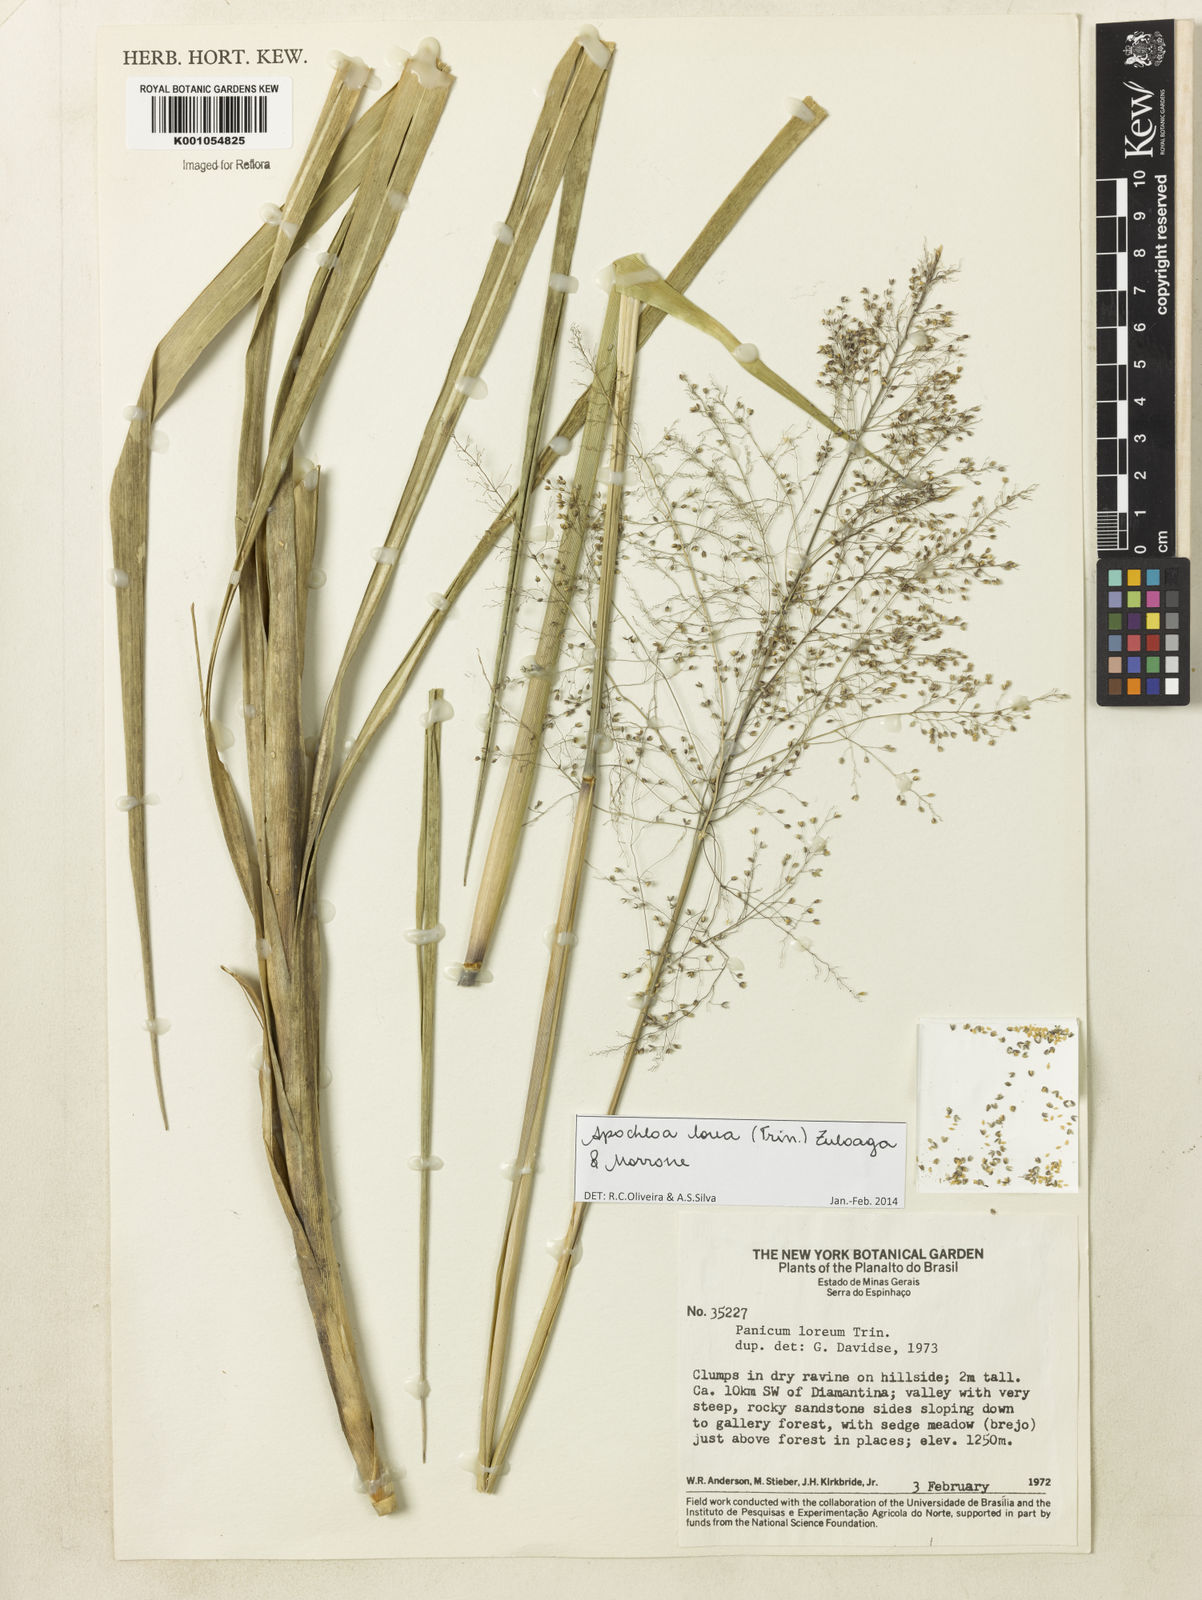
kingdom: Plantae
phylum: Tracheophyta
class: Liliopsida
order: Poales
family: Poaceae
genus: Apochloa
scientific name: Apochloa lorea
